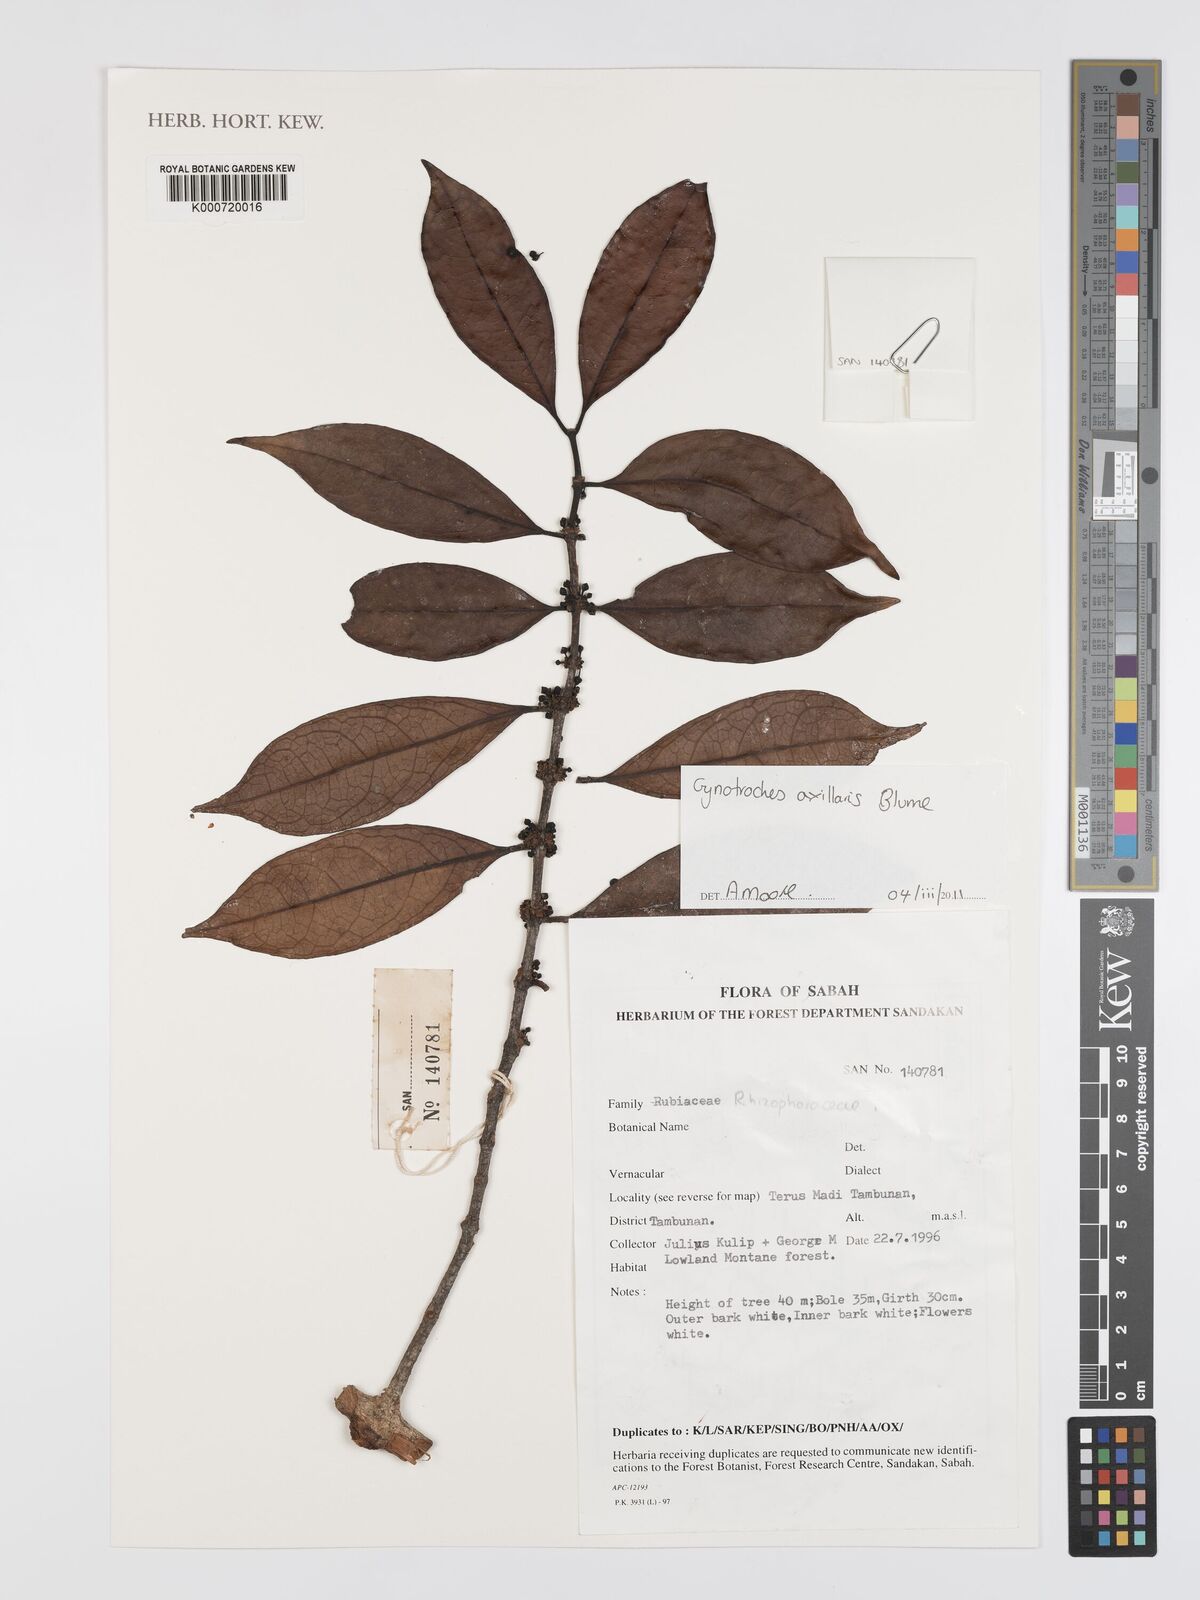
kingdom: Plantae
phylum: Tracheophyta
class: Magnoliopsida
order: Malpighiales
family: Rhizophoraceae
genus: Gynotroches
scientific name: Gynotroches axillaris
